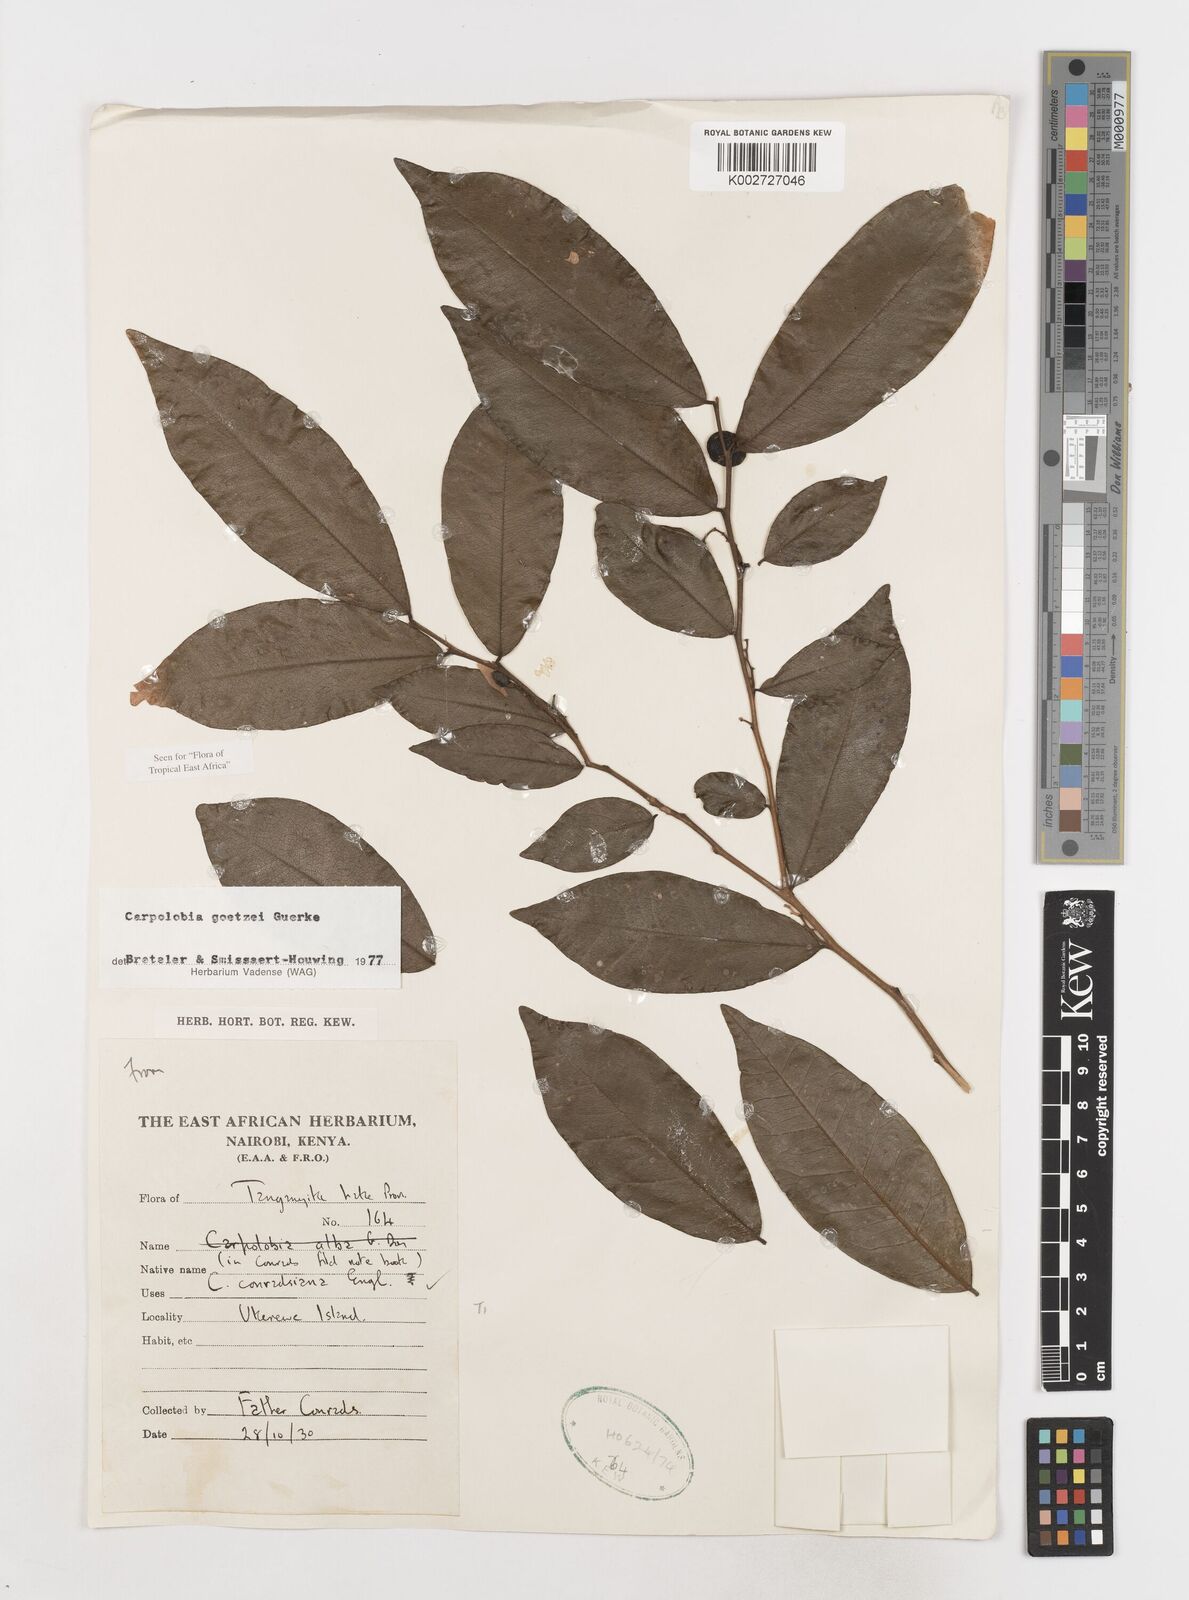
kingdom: Plantae
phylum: Tracheophyta
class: Magnoliopsida
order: Fabales
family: Polygalaceae
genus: Carpolobia
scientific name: Carpolobia goetzei
